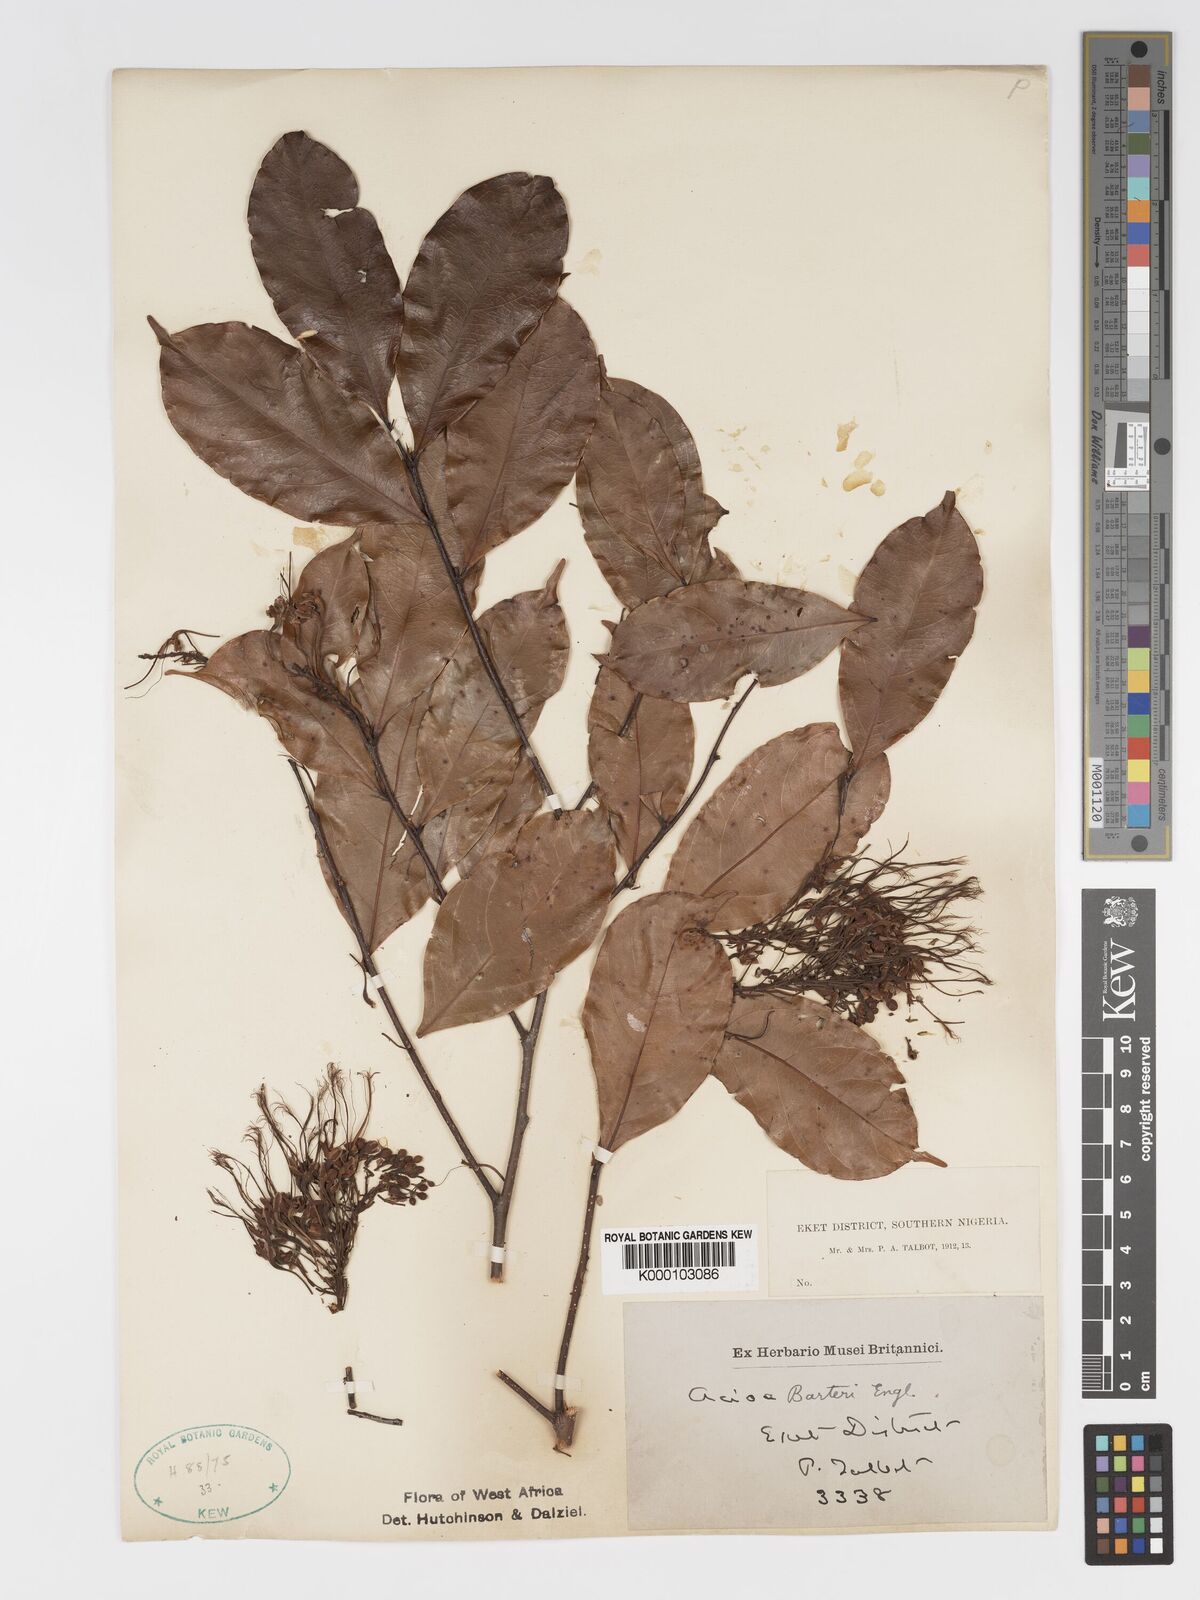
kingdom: Plantae
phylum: Tracheophyta
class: Magnoliopsida
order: Malpighiales
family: Chrysobalanaceae
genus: Dactyladenia
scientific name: Dactyladenia barteri
